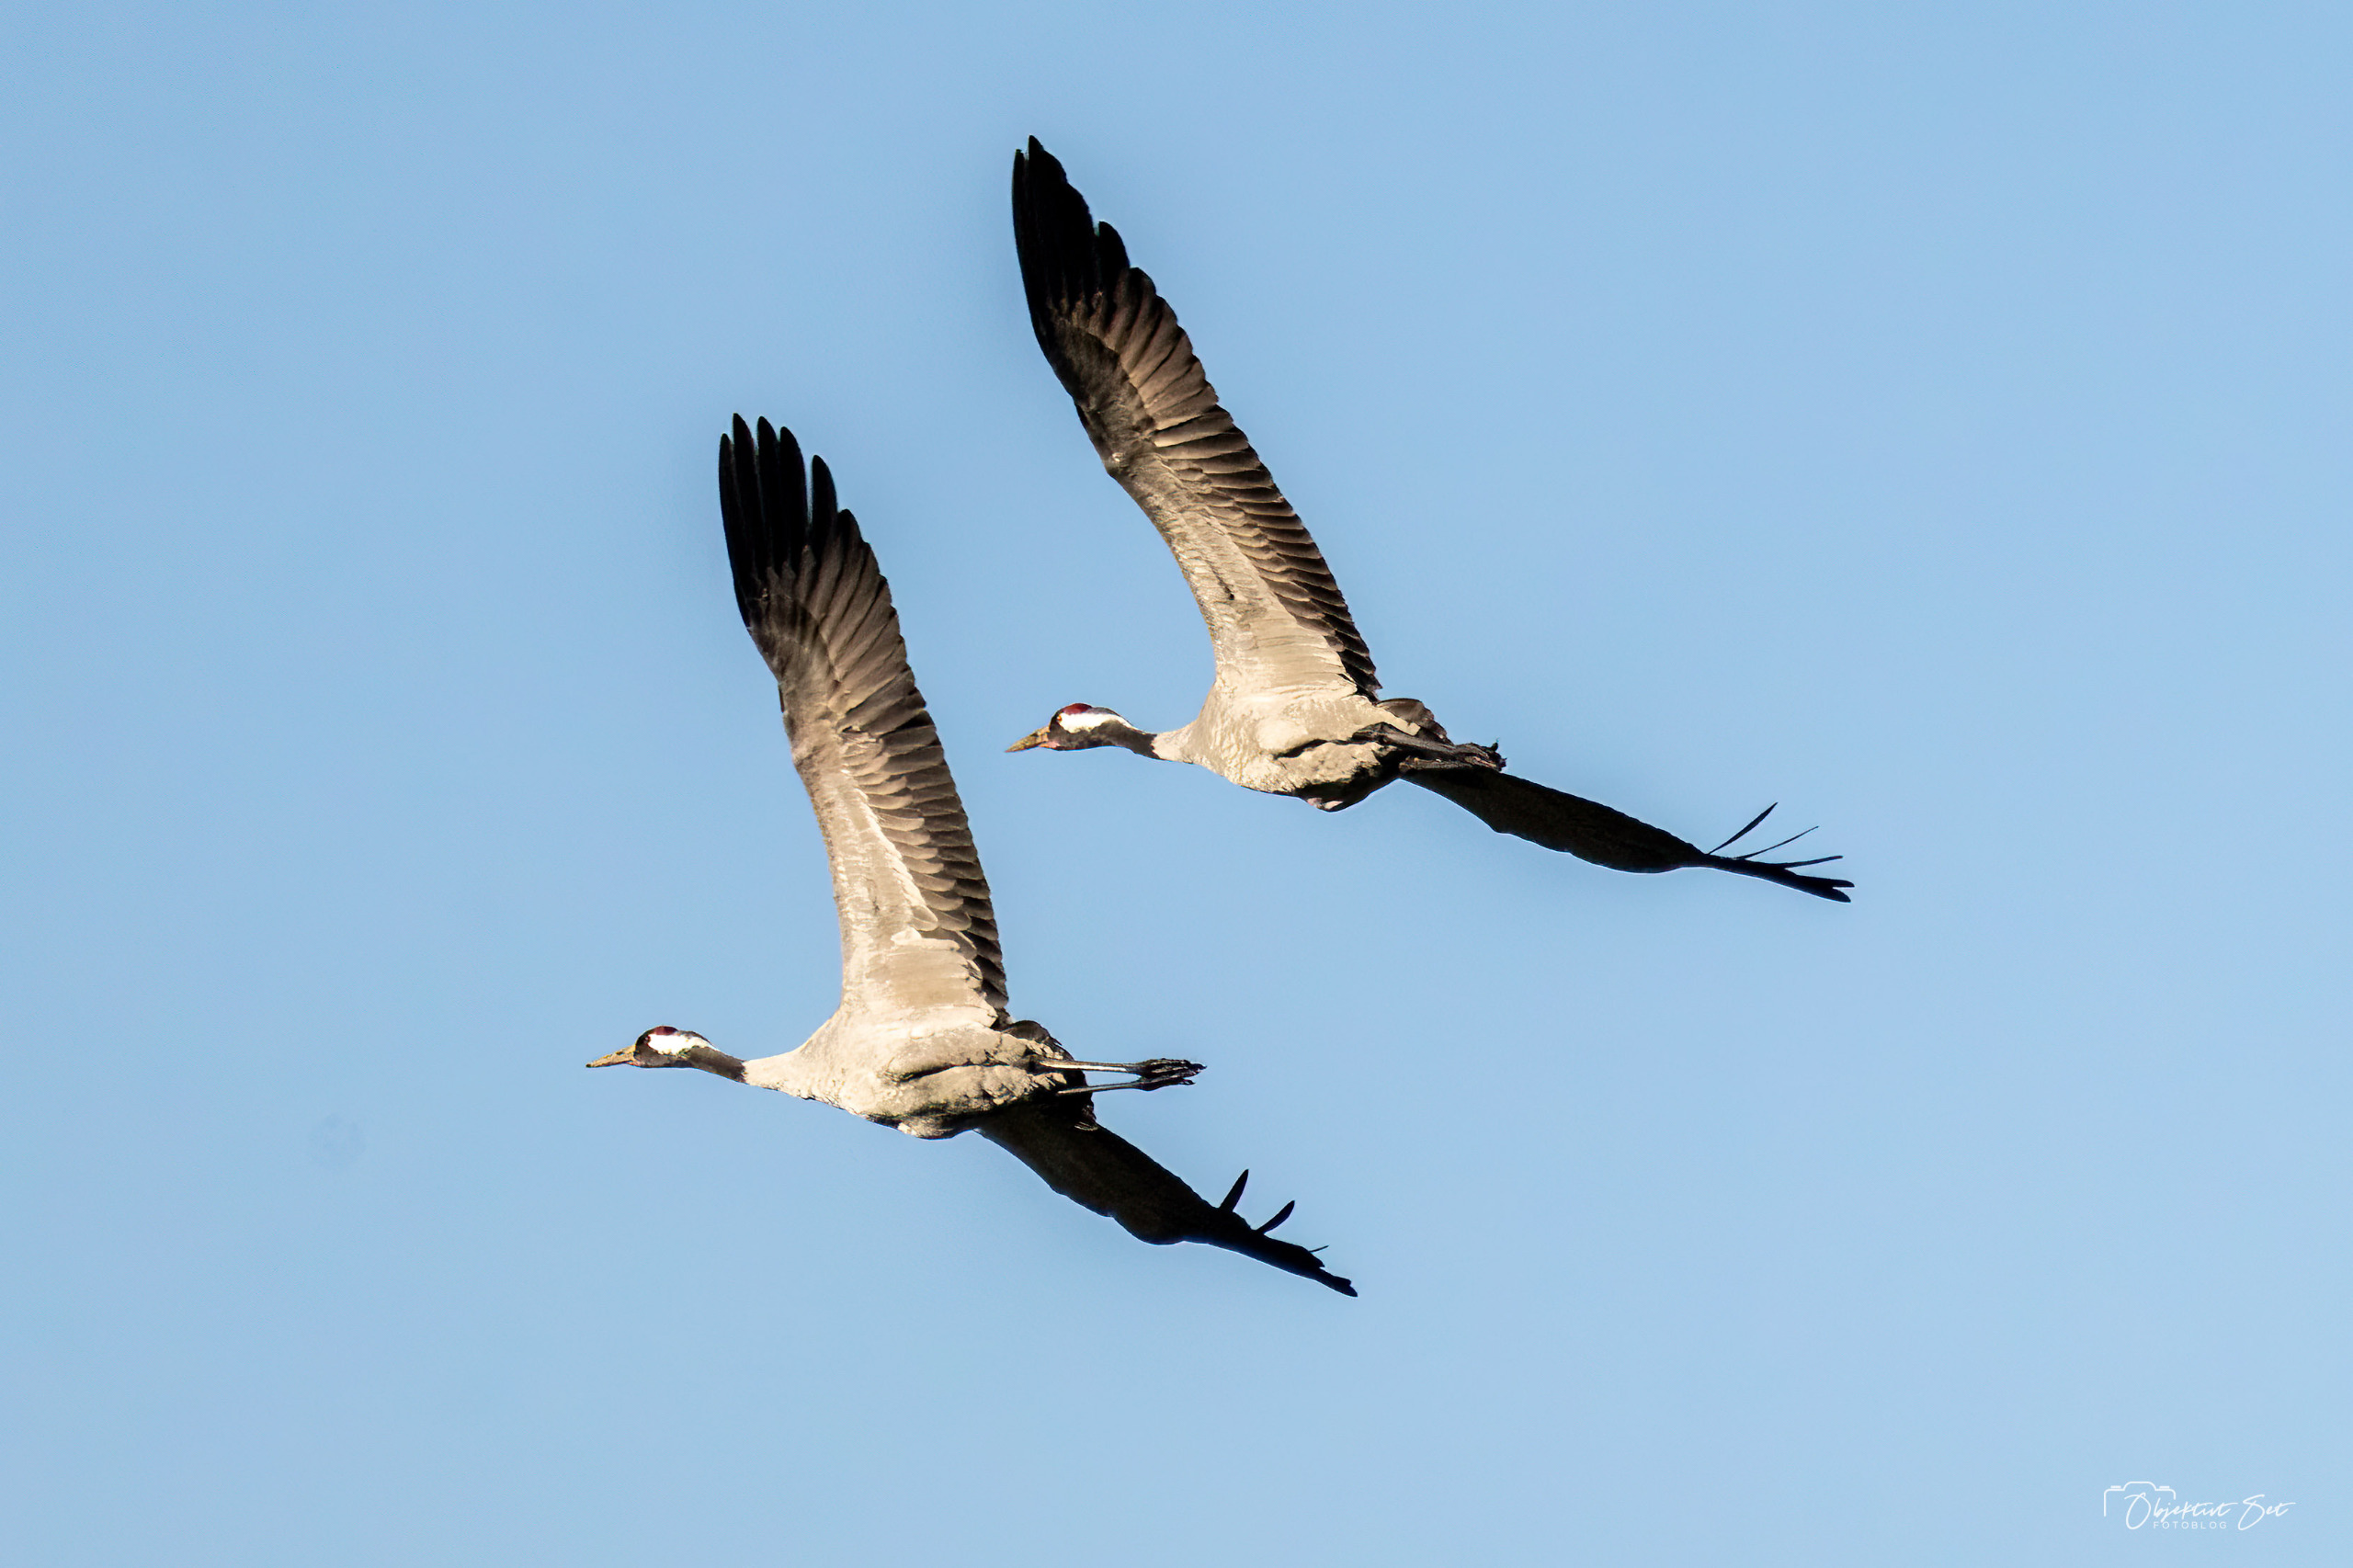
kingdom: Animalia
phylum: Chordata
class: Aves
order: Gruiformes
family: Gruidae
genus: Grus
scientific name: Grus grus
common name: Trane
